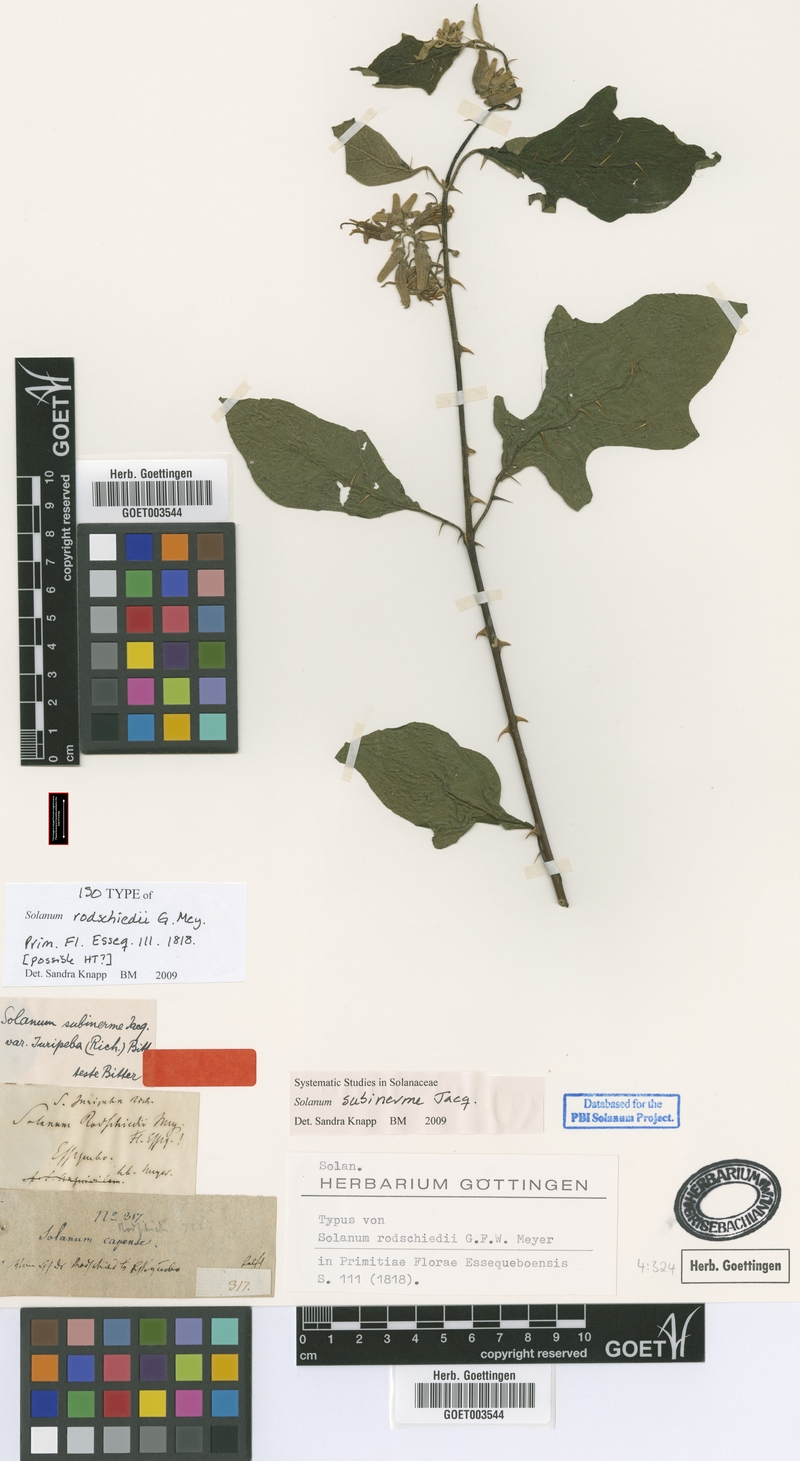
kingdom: Plantae
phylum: Tracheophyta
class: Magnoliopsida
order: Solanales
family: Solanaceae
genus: Solanum
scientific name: Solanum subinerme
